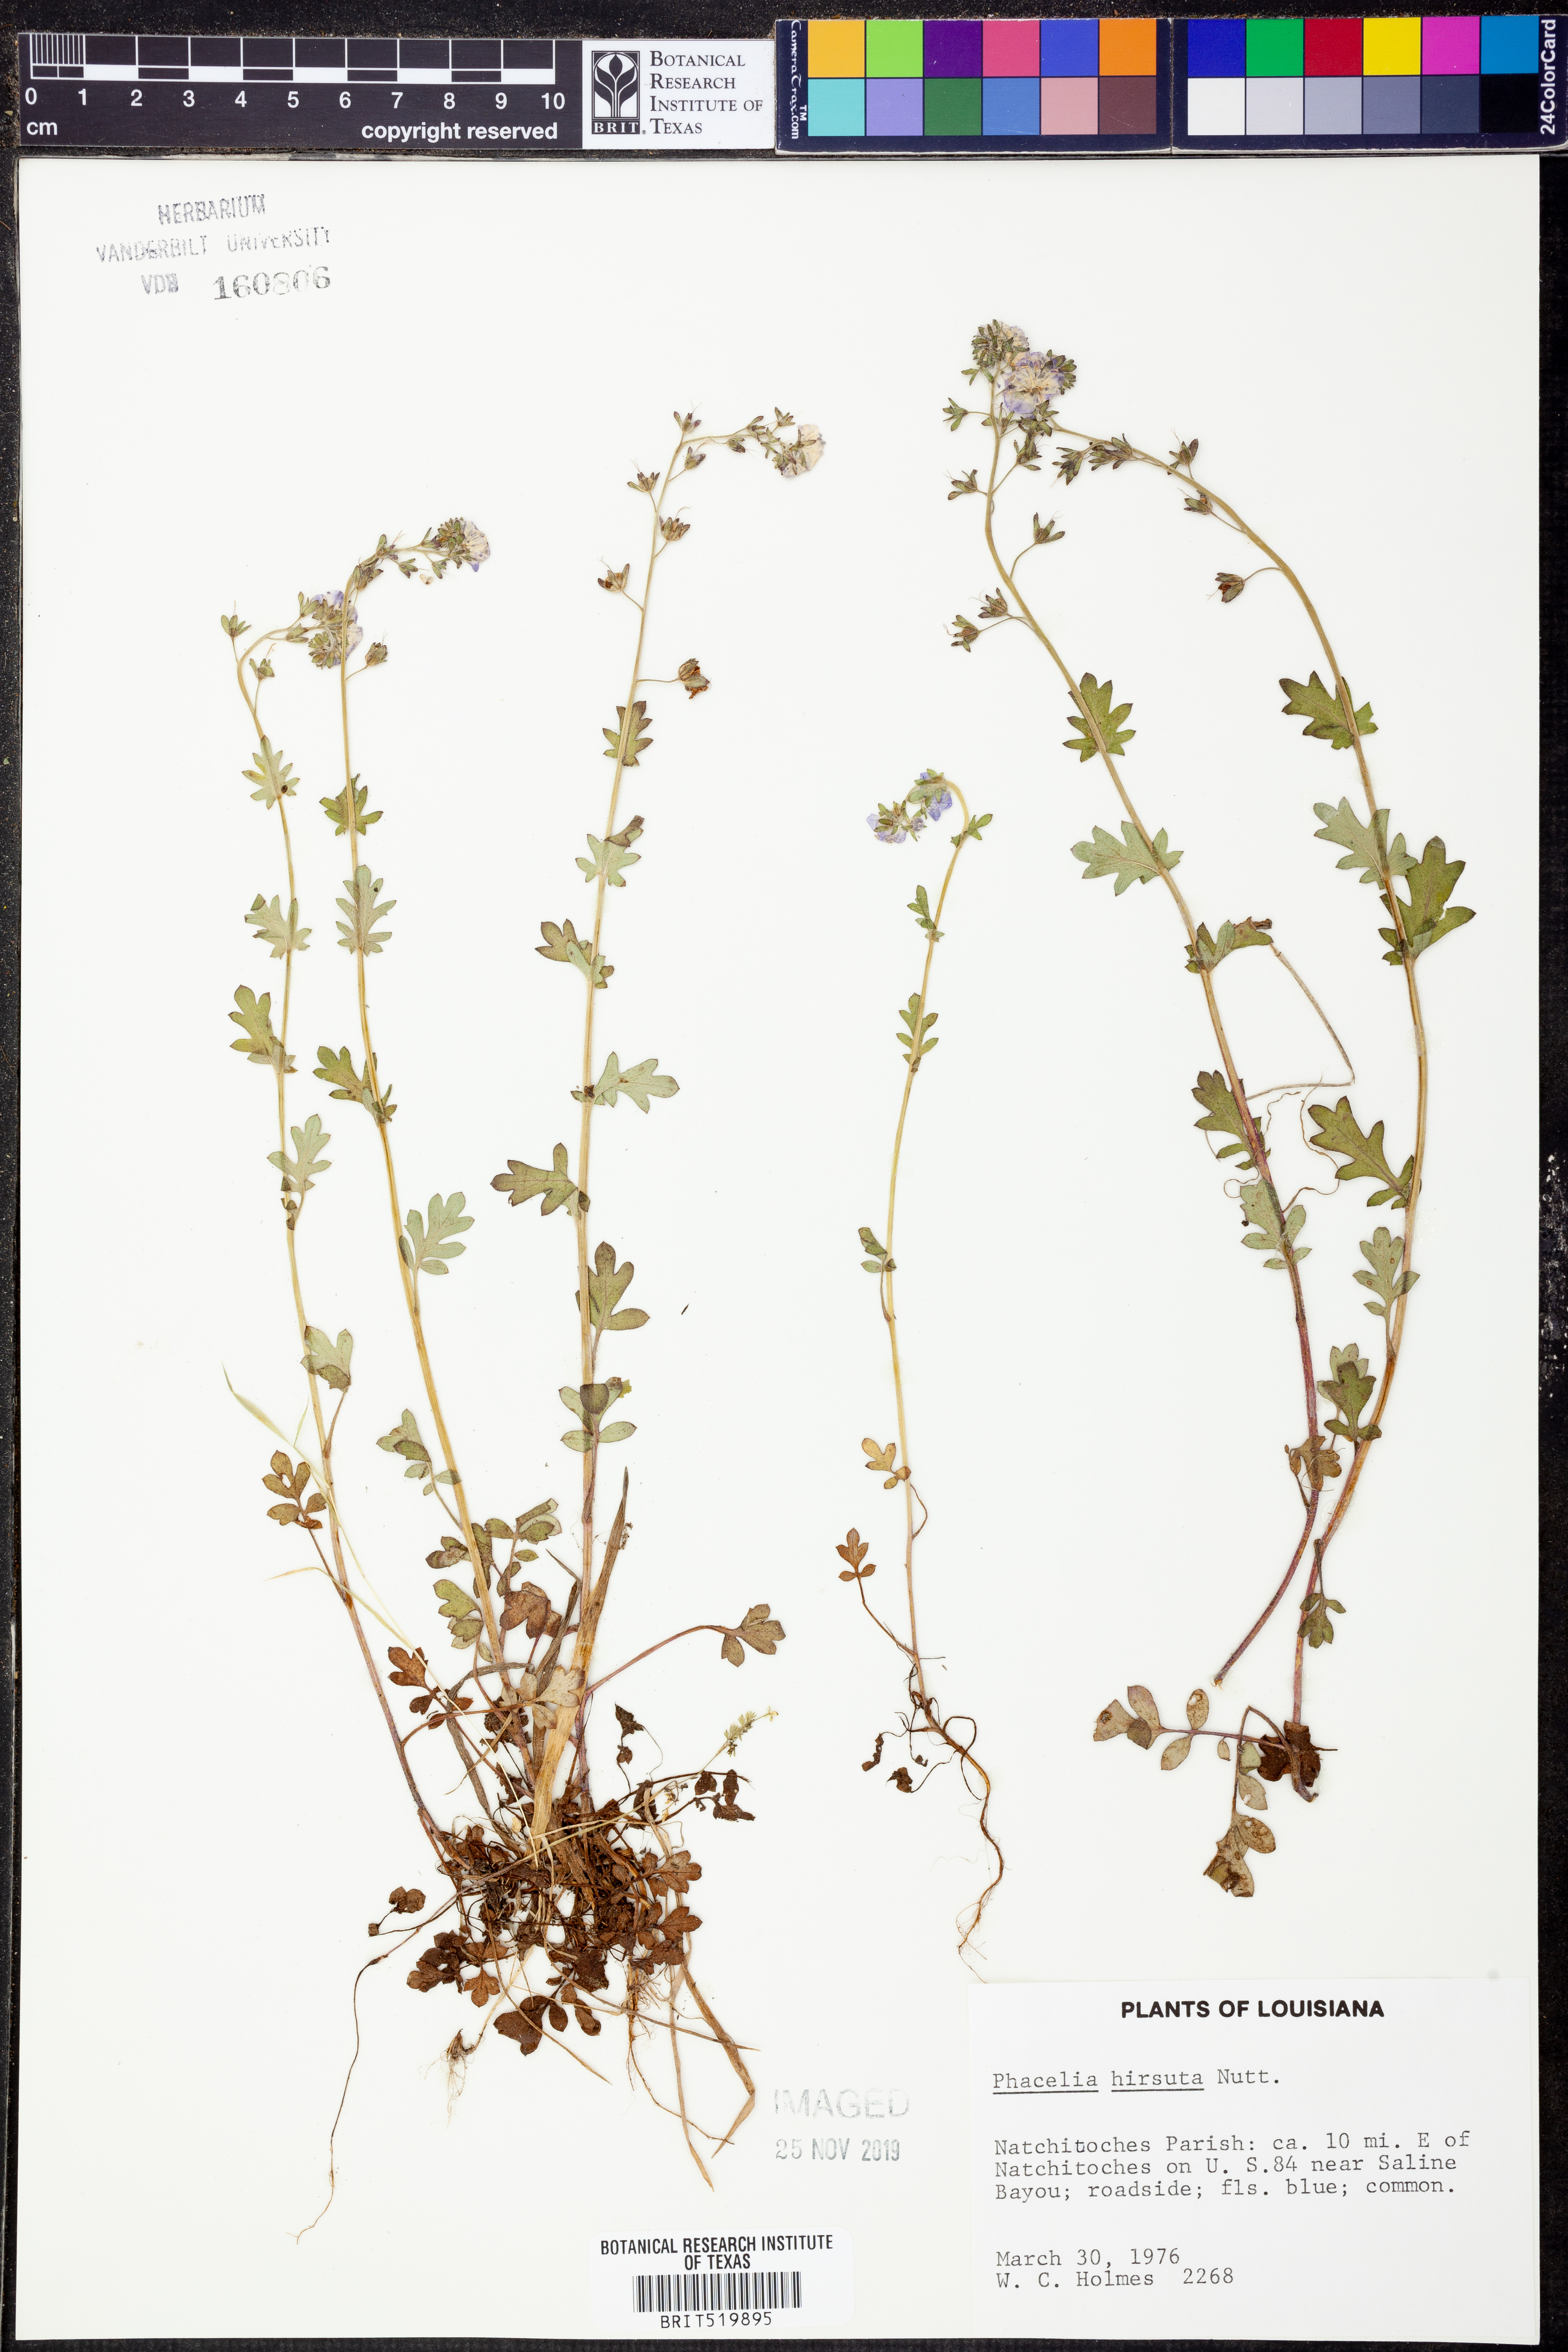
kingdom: Plantae
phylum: Tracheophyta
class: Magnoliopsida
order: Boraginales
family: Hydrophyllaceae
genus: Phacelia
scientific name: Phacelia hirsuta
